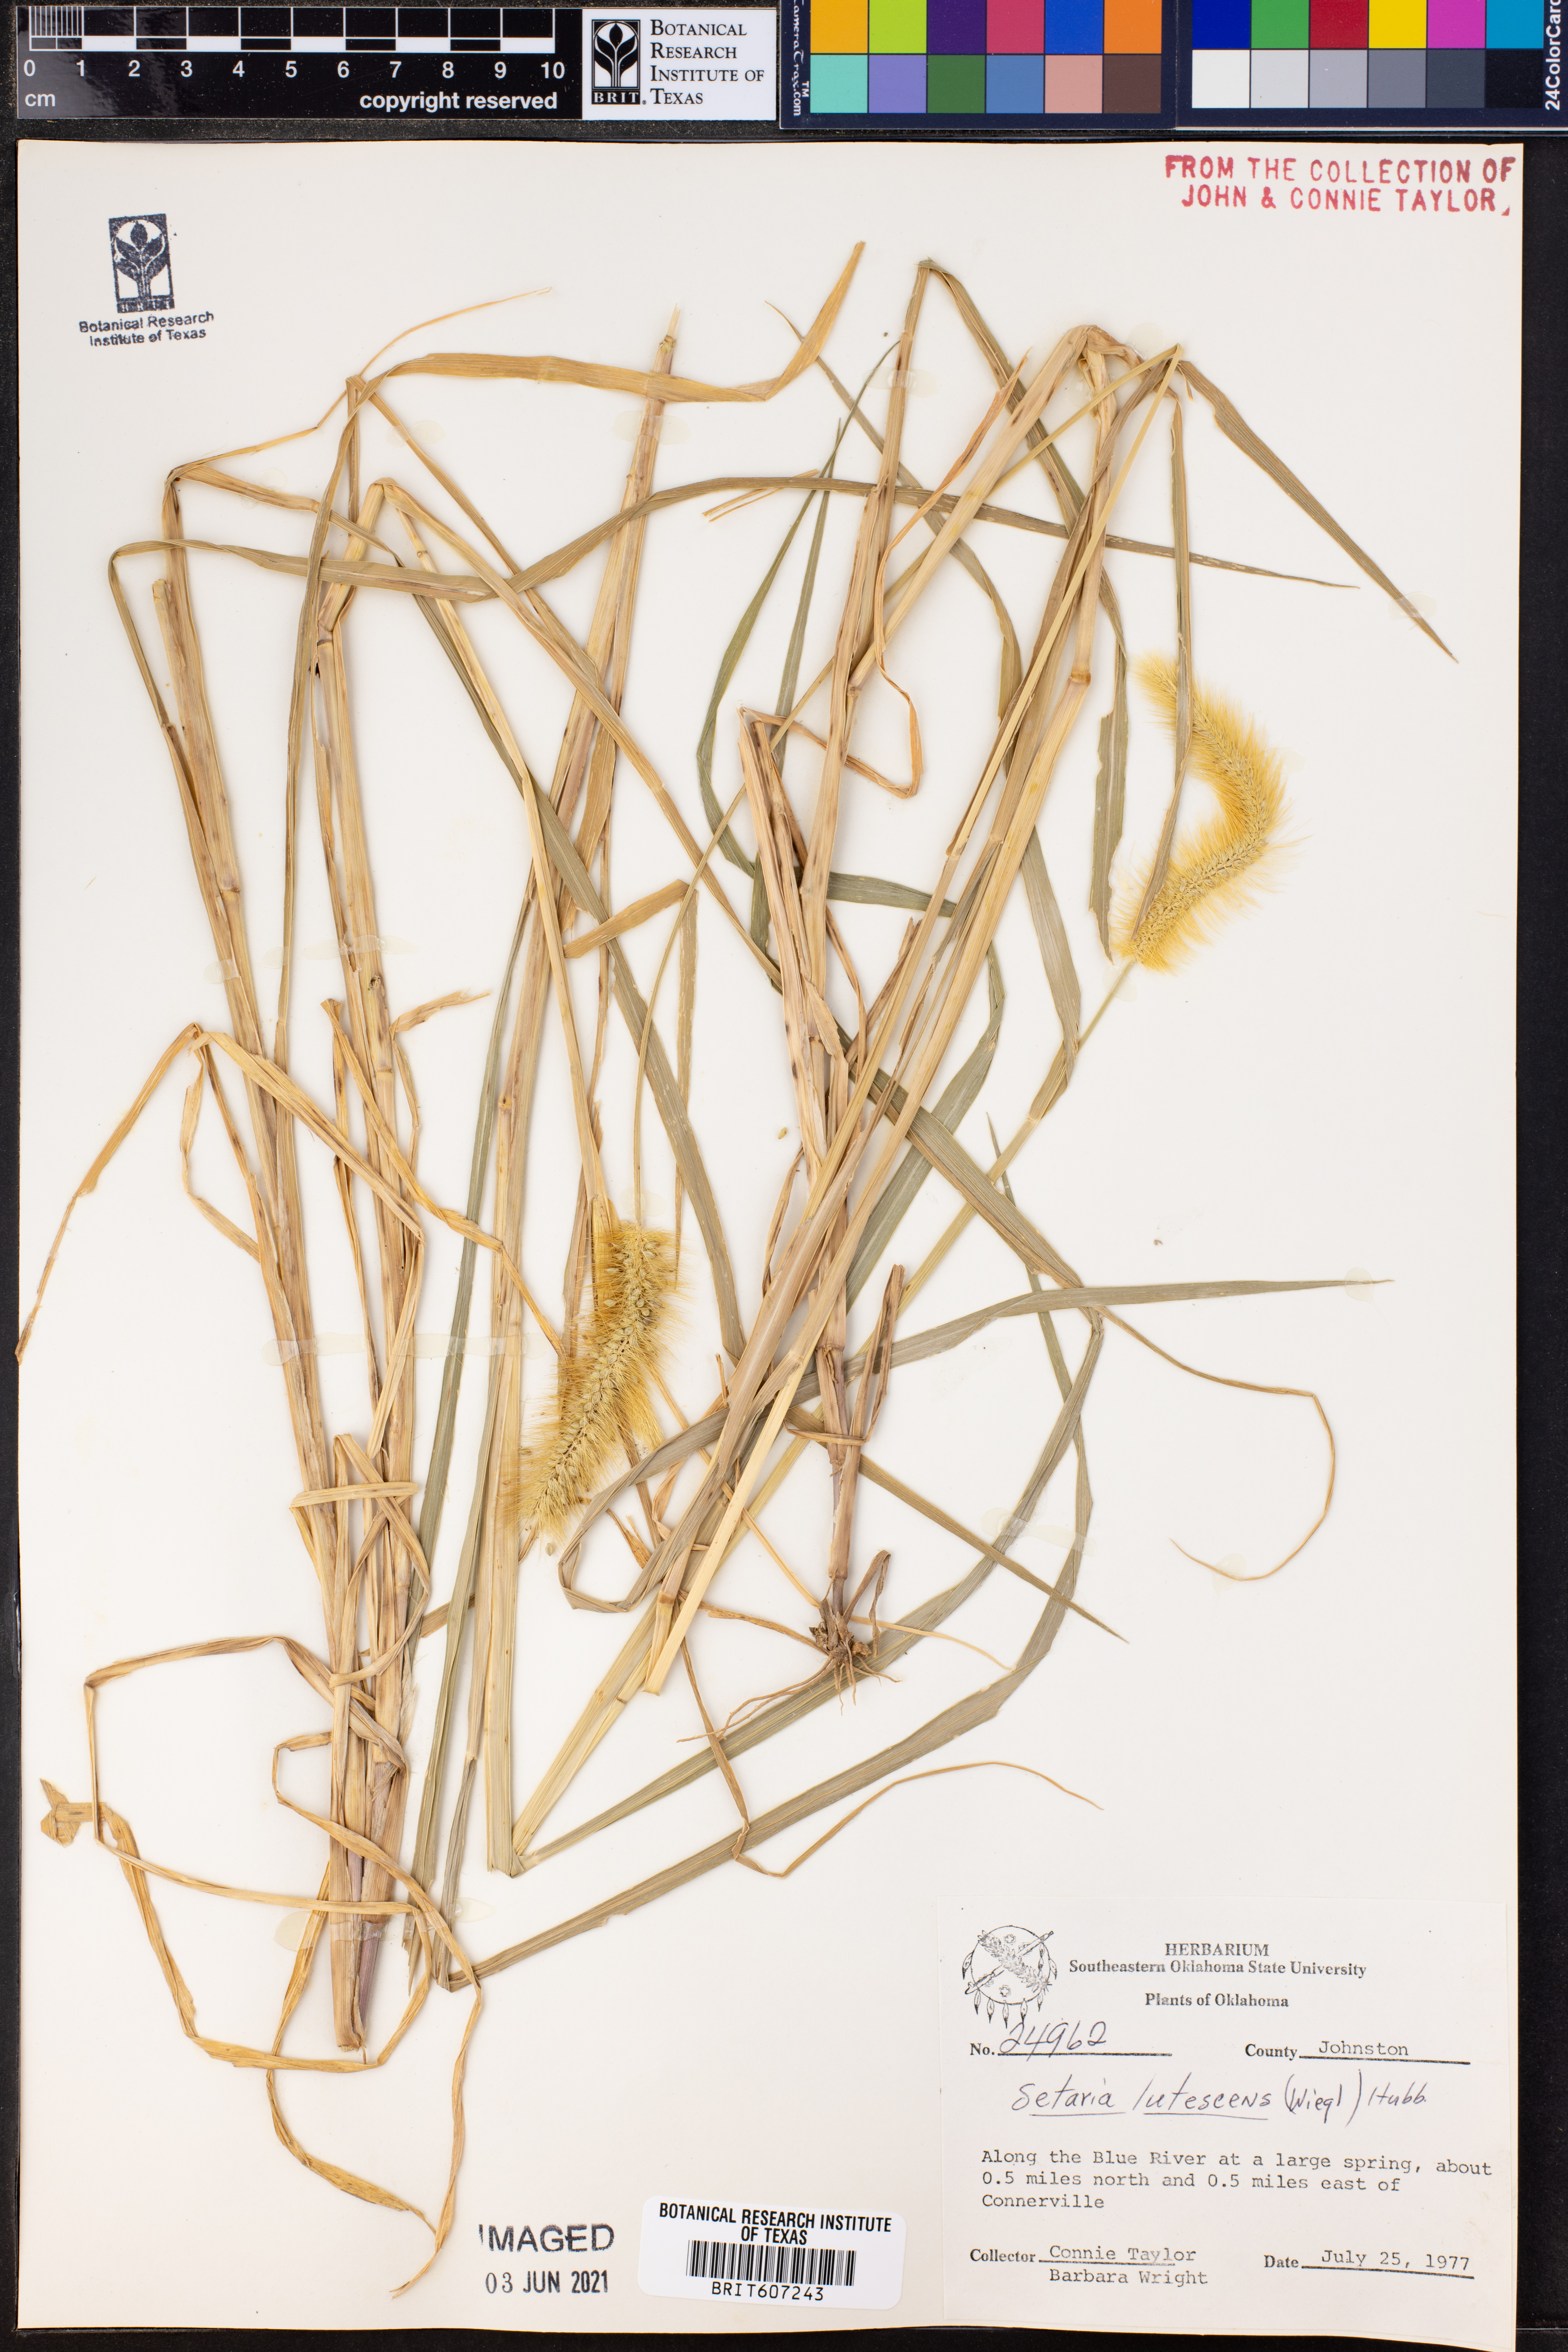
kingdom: Plantae
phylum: Tracheophyta
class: Liliopsida
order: Poales
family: Poaceae
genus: Cenchrus
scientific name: Cenchrus americanus
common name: Pearl millet
